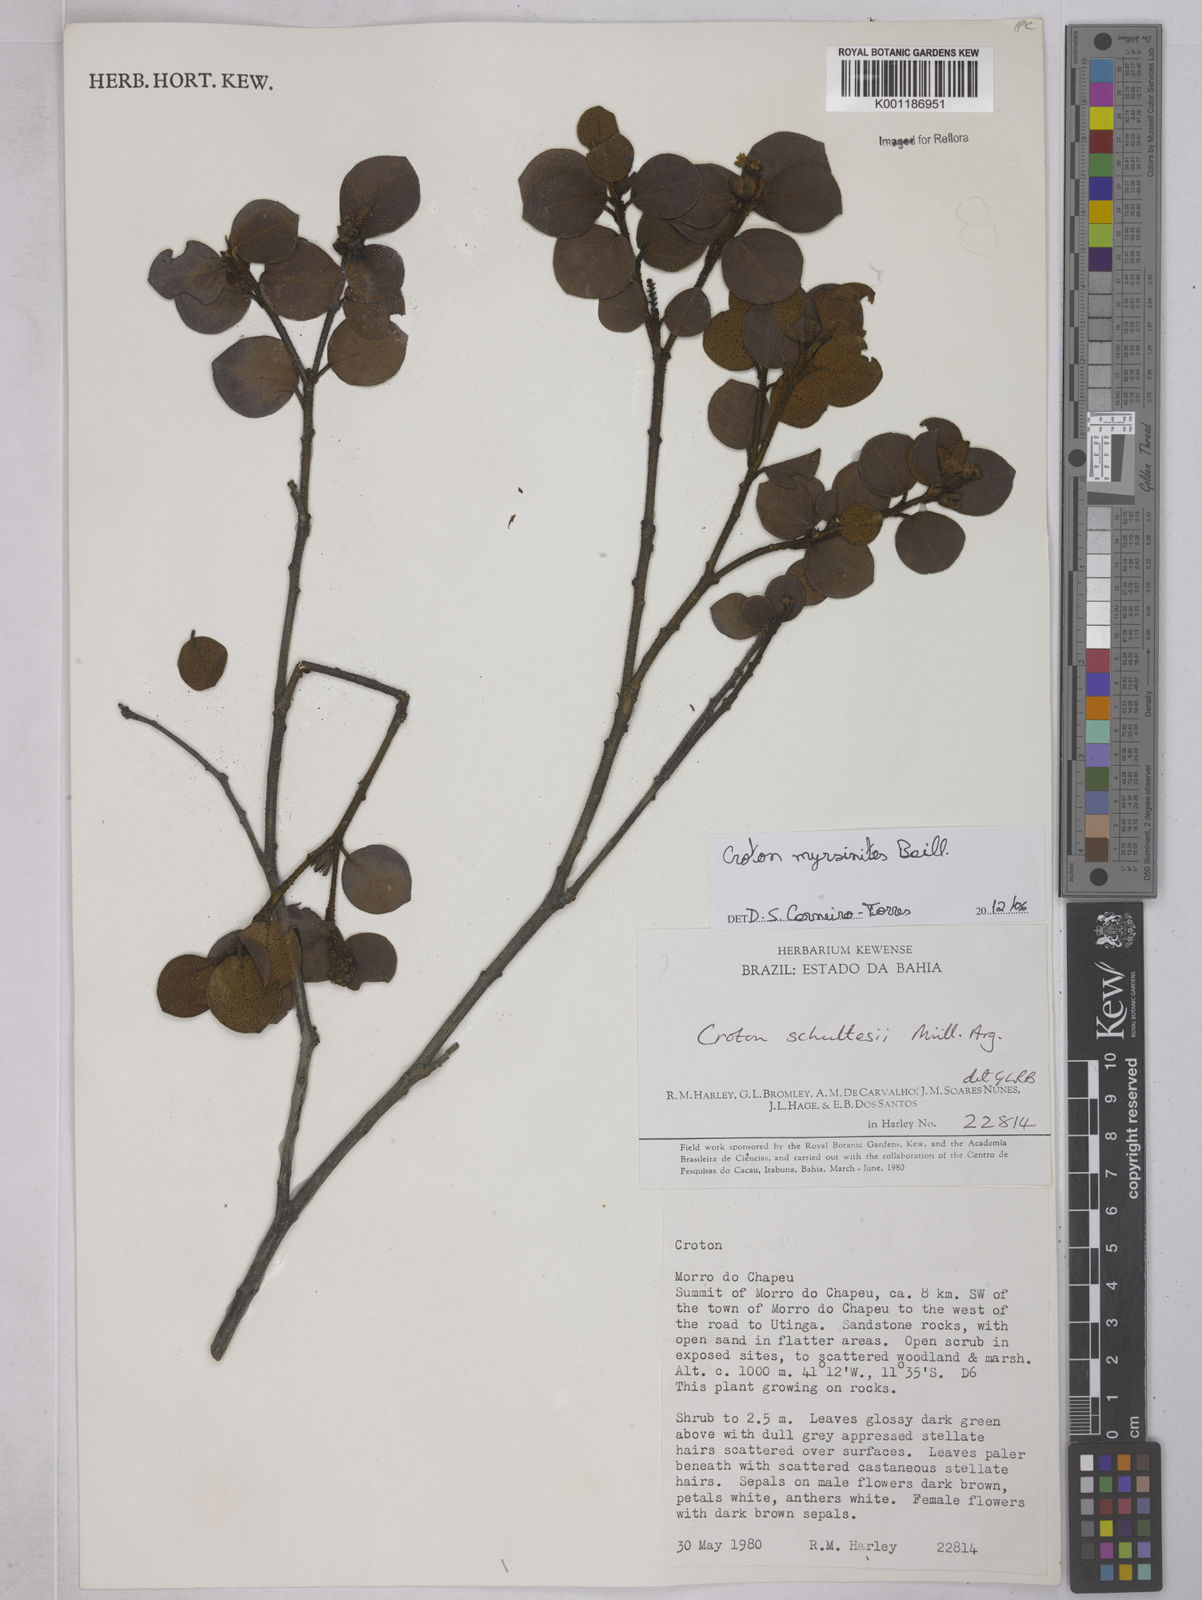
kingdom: Plantae
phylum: Tracheophyta
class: Magnoliopsida
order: Malpighiales
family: Euphorbiaceae
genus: Croton
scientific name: Croton myrsinites
